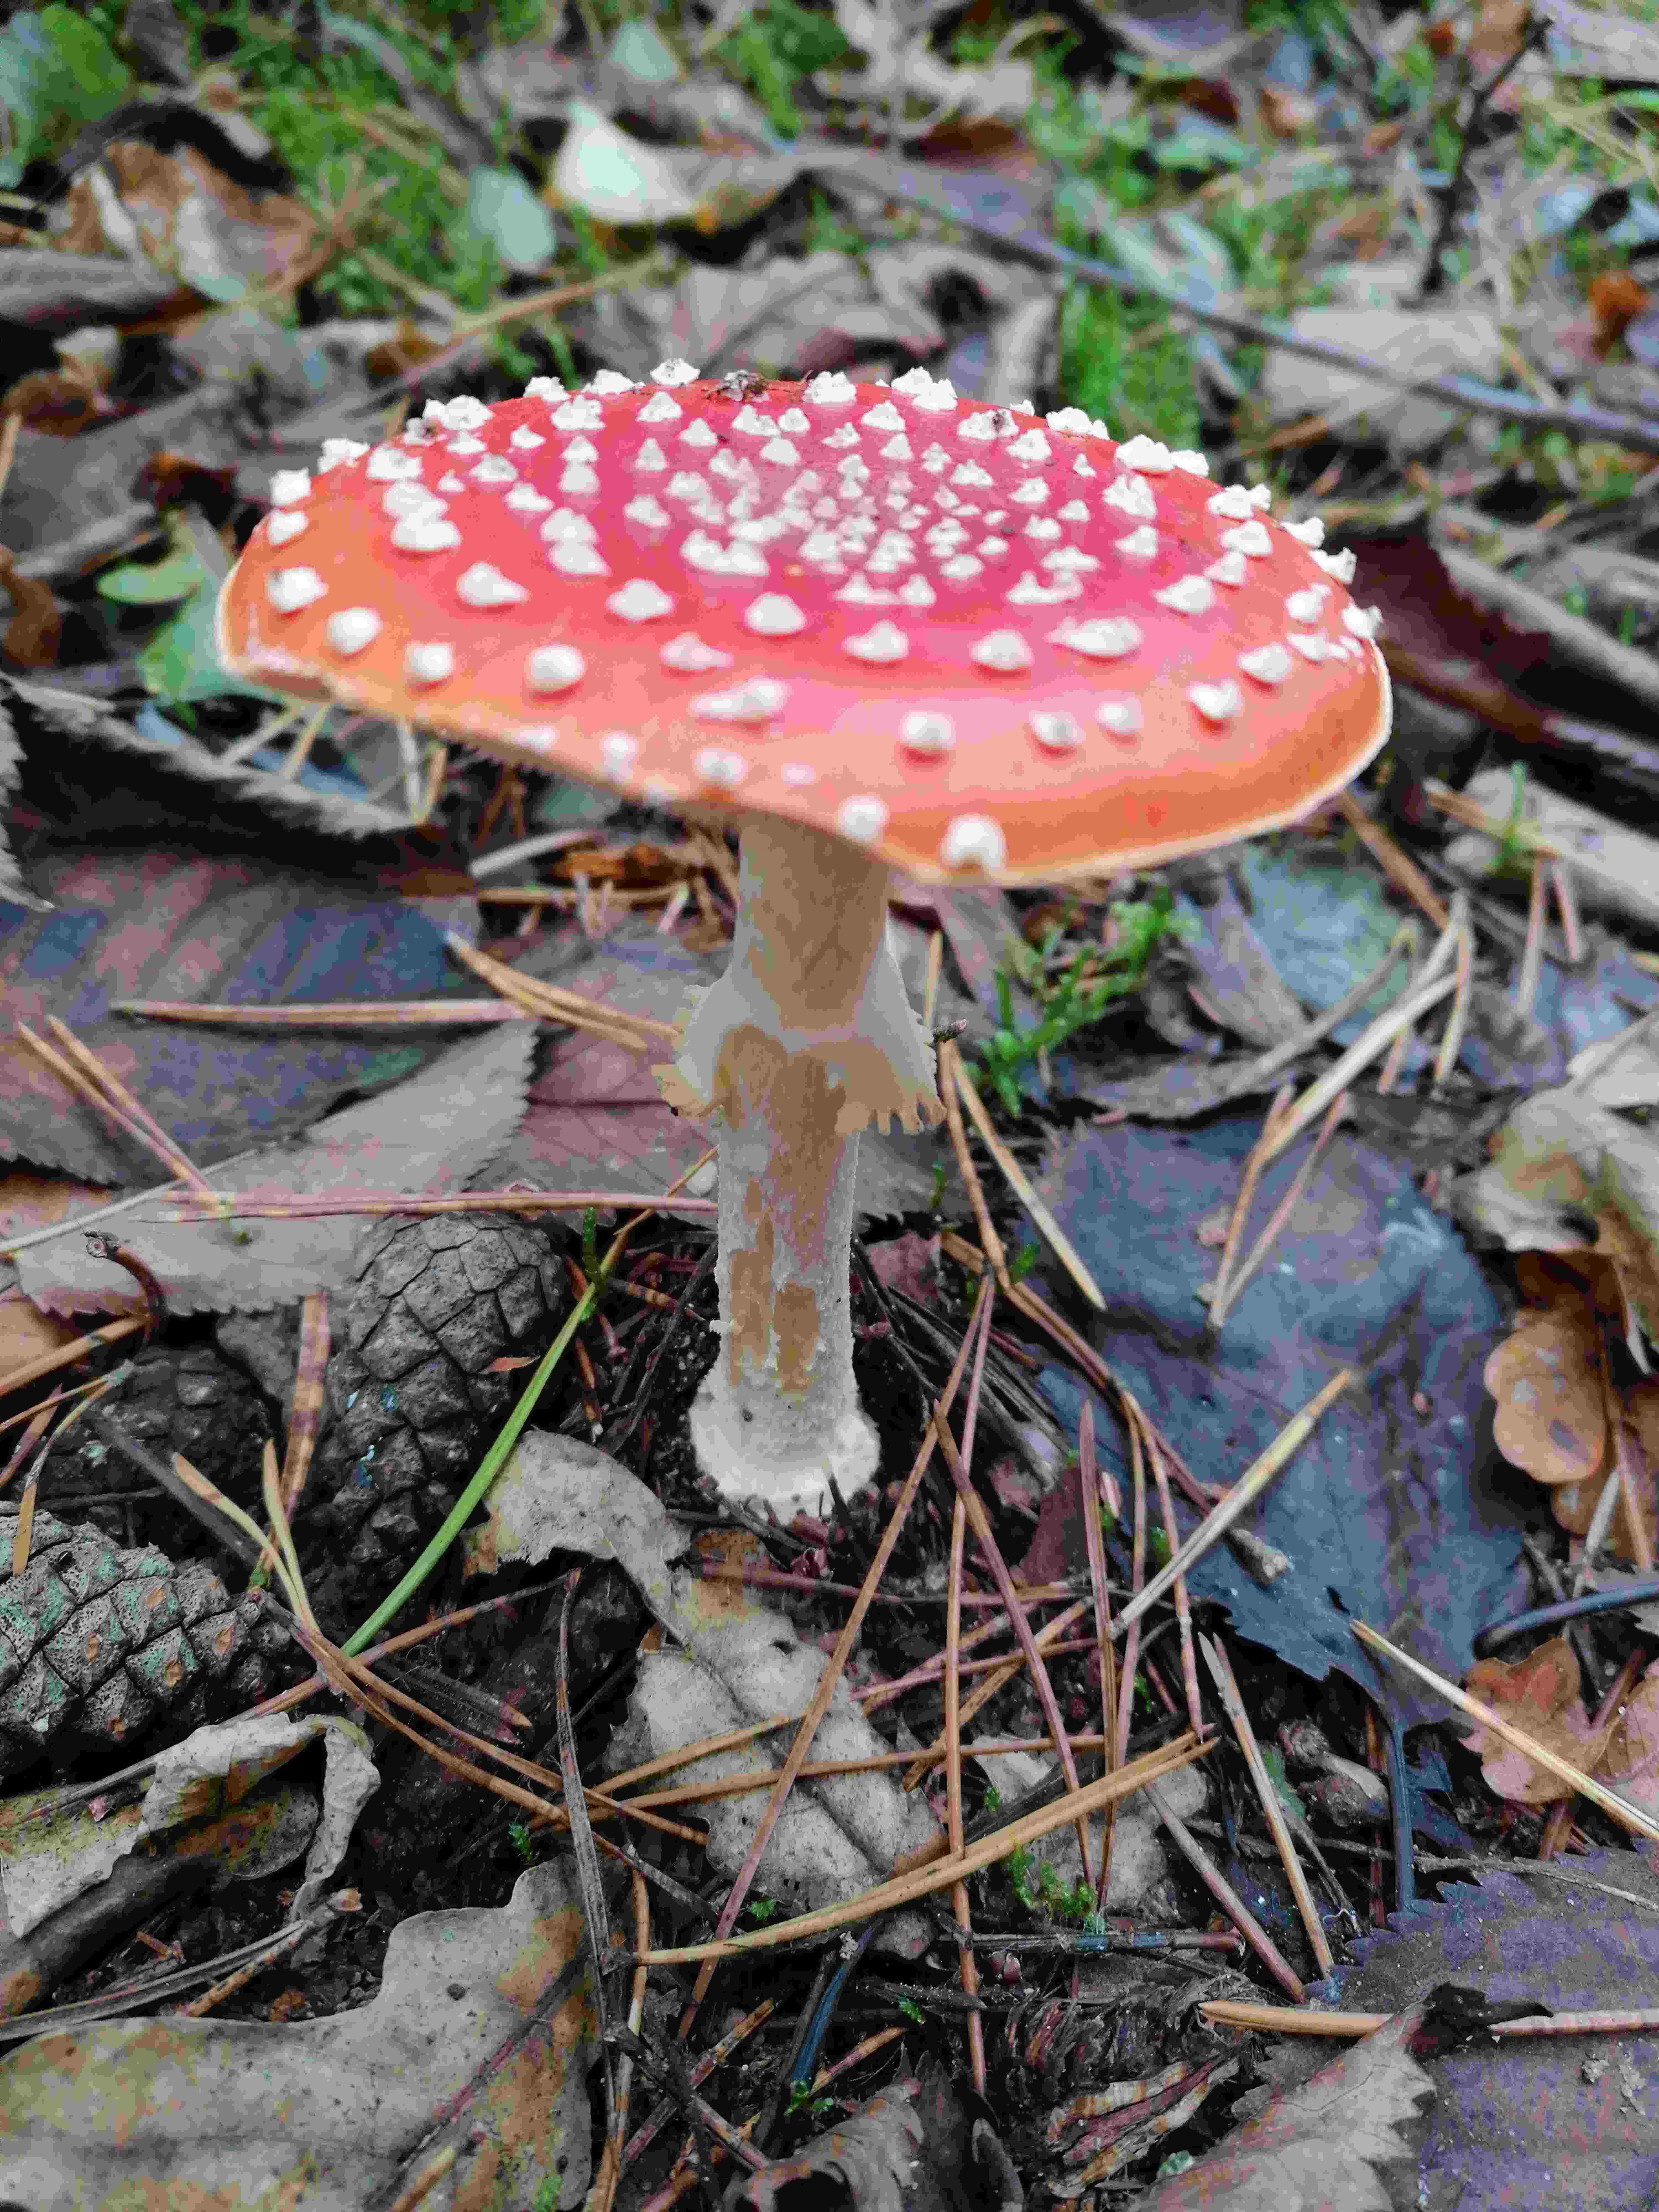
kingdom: Fungi
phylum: Basidiomycota
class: Agaricomycetes
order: Agaricales
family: Amanitaceae
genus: Amanita
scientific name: Amanita muscaria
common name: rød fluesvamp
